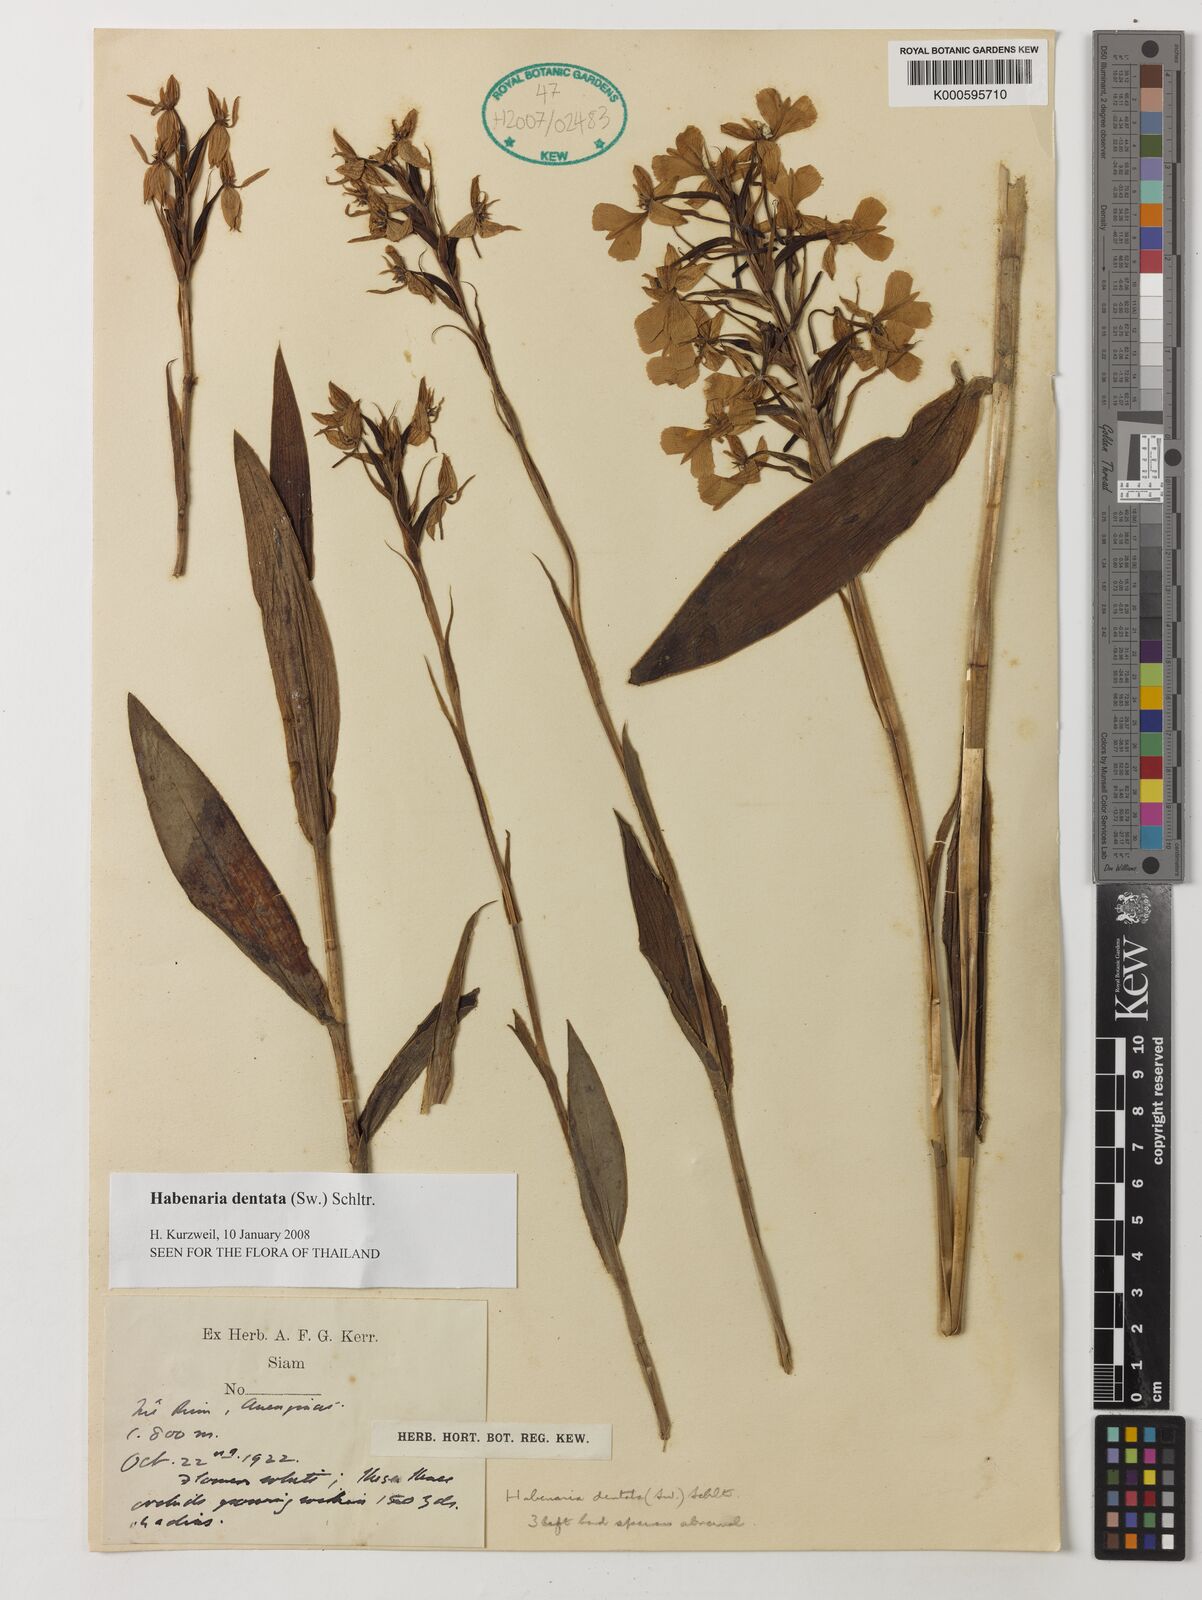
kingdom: Plantae
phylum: Tracheophyta
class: Liliopsida
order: Asparagales
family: Orchidaceae
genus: Habenaria
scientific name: Habenaria dentata
